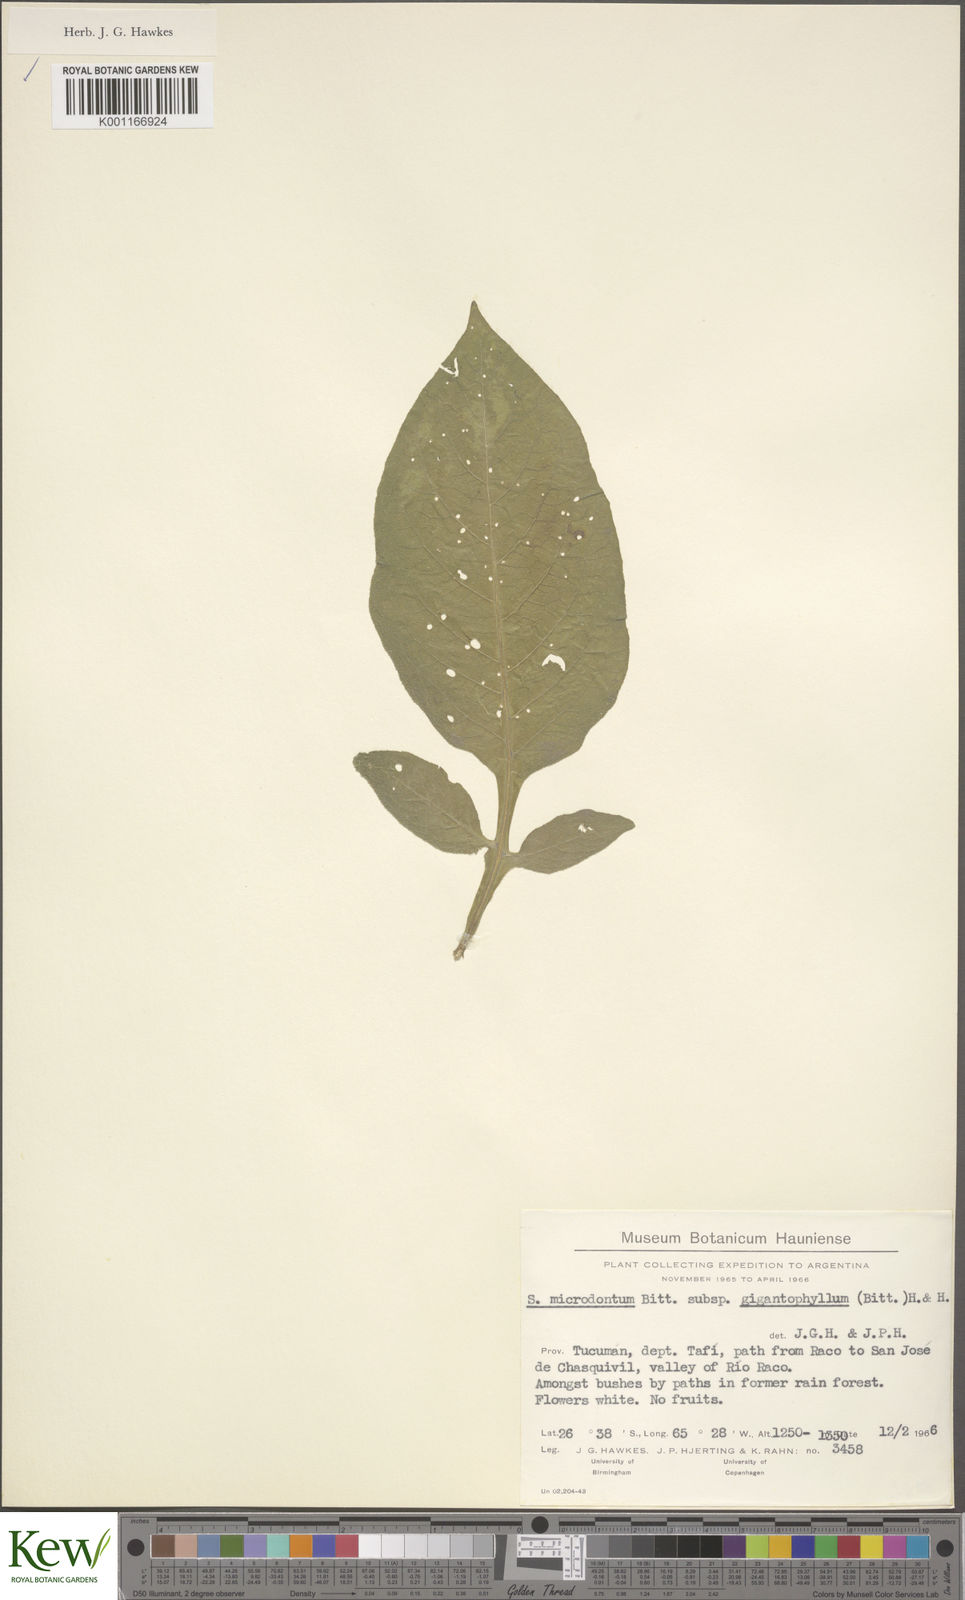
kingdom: Plantae
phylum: Tracheophyta
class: Magnoliopsida
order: Solanales
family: Solanaceae
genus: Solanum
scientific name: Solanum microdontum
